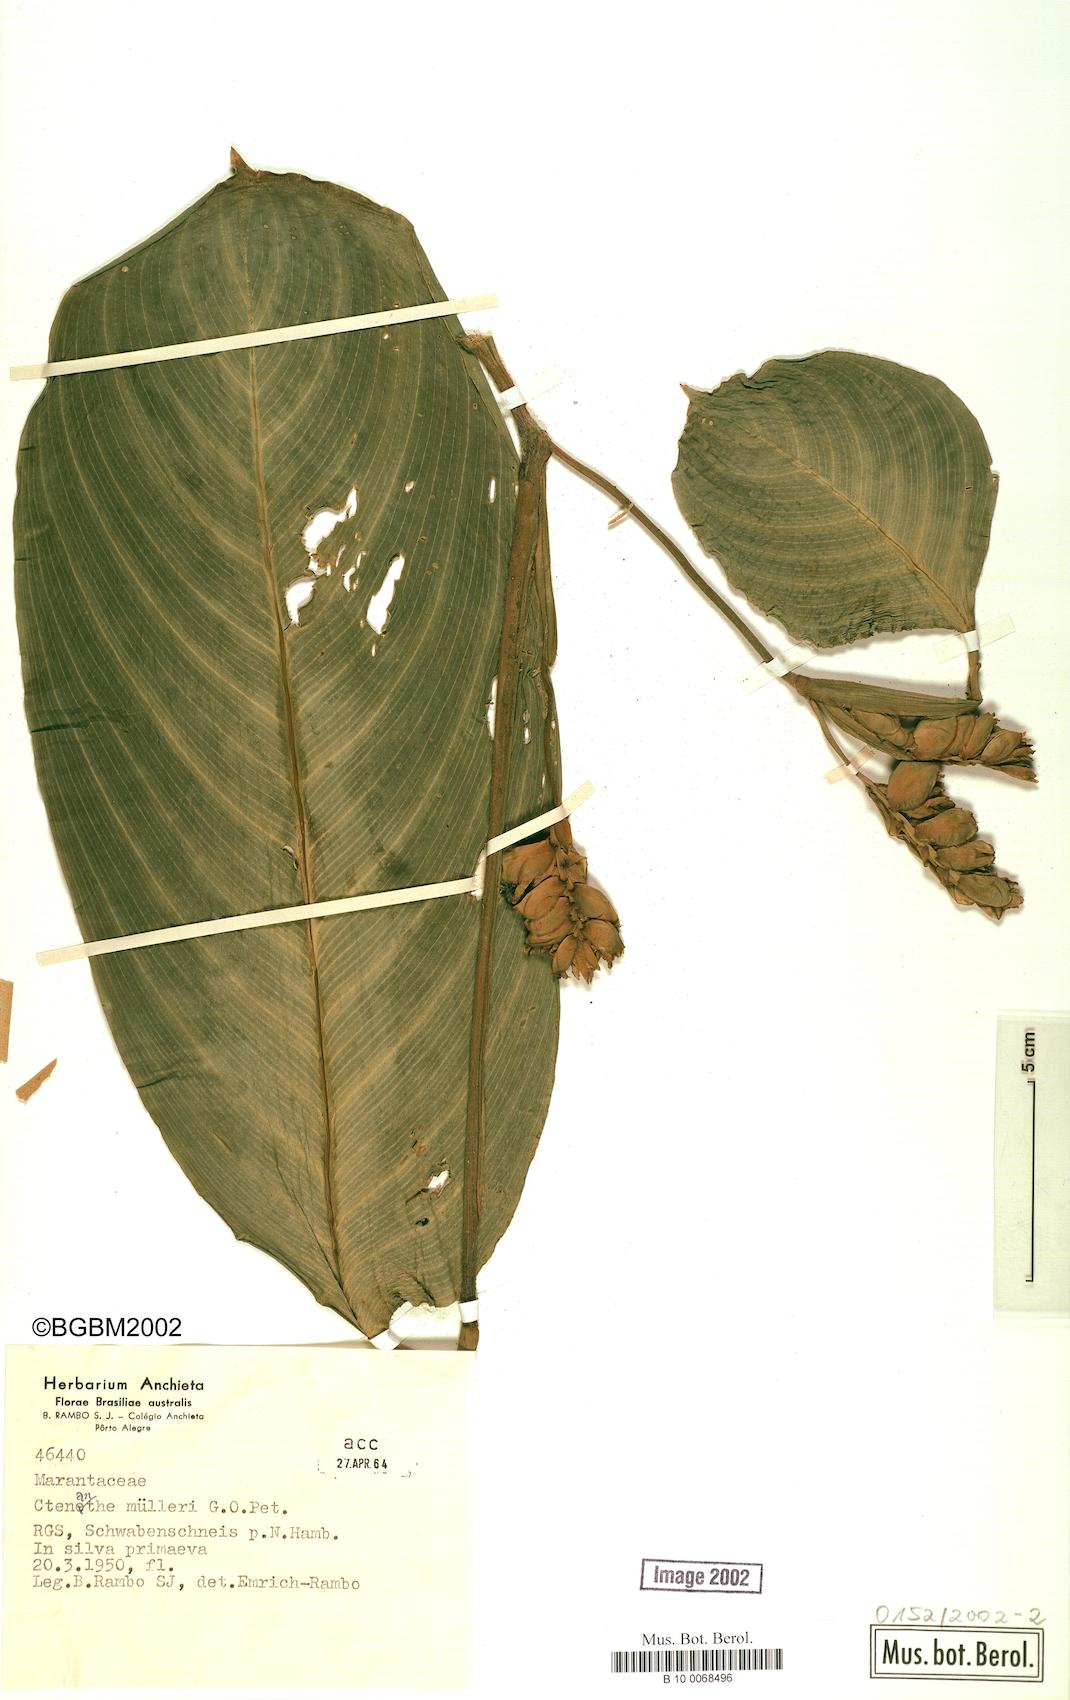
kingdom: Plantae
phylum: Tracheophyta
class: Liliopsida
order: Zingiberales
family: Marantaceae
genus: Ctenanthe
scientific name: Ctenanthe muelleri
